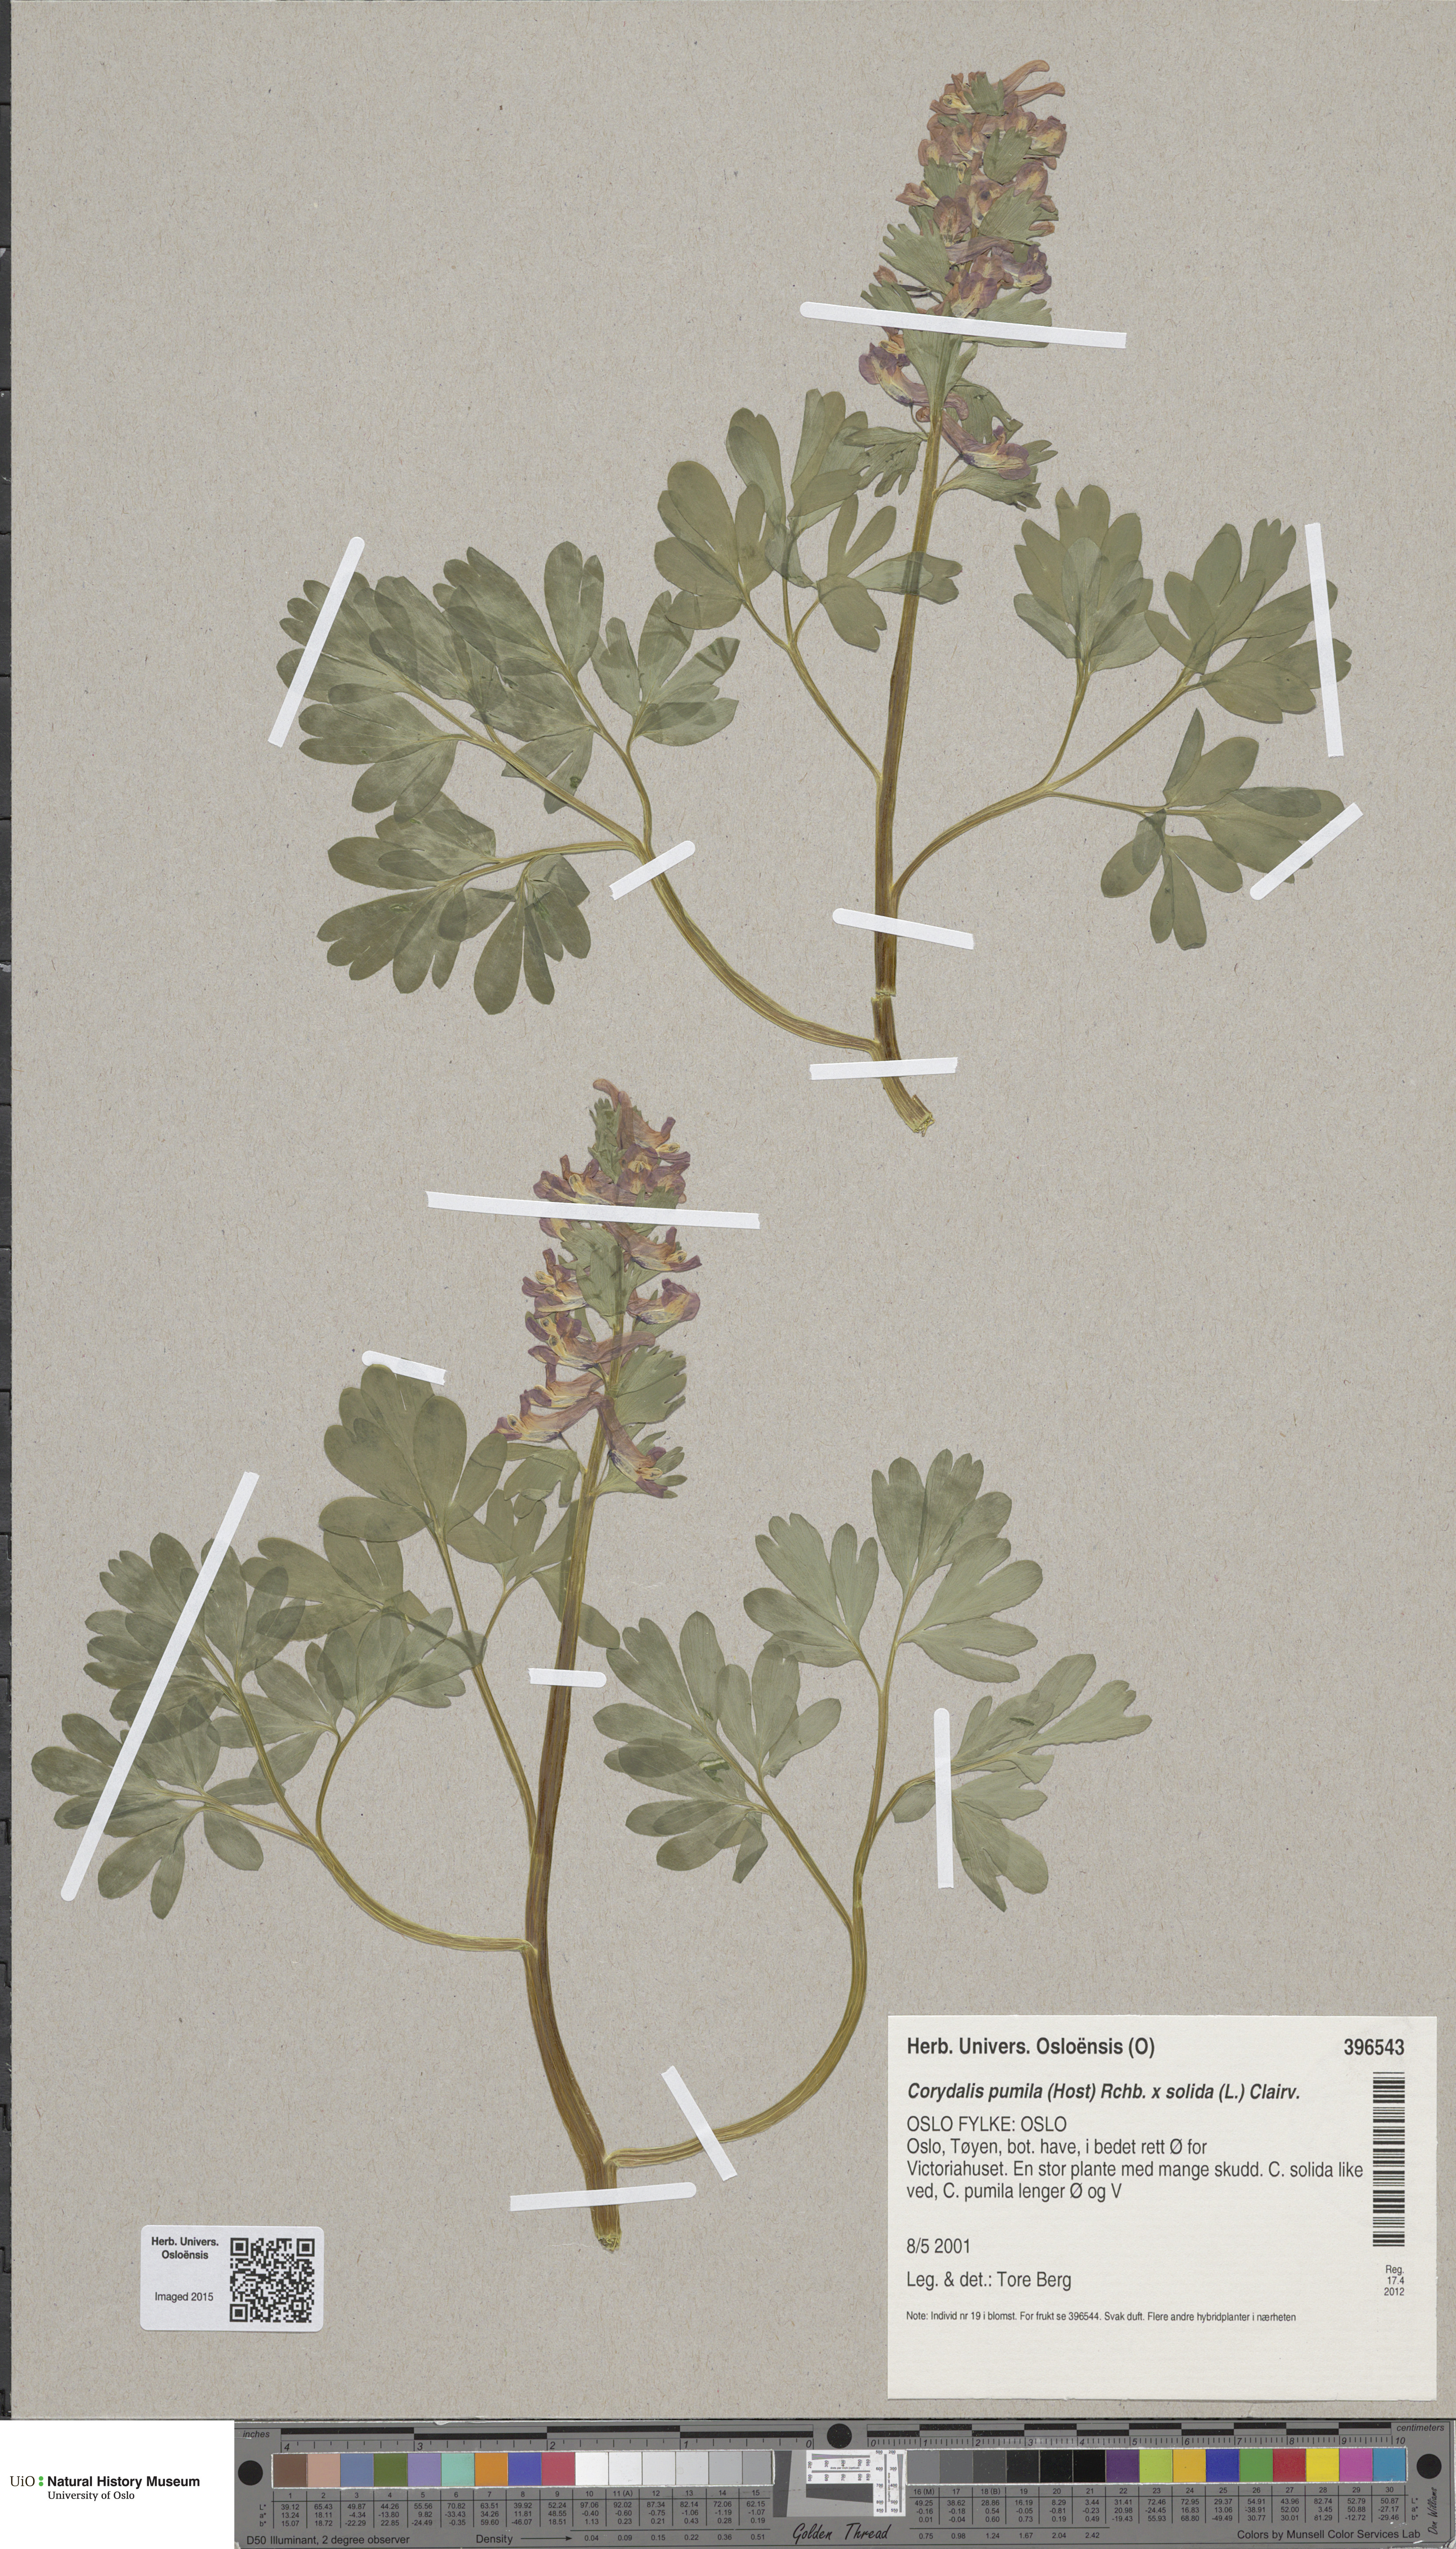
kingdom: Plantae
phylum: Tracheophyta
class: Magnoliopsida
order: Ranunculales
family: Papaveraceae
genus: Corydalis
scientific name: Corydalis
